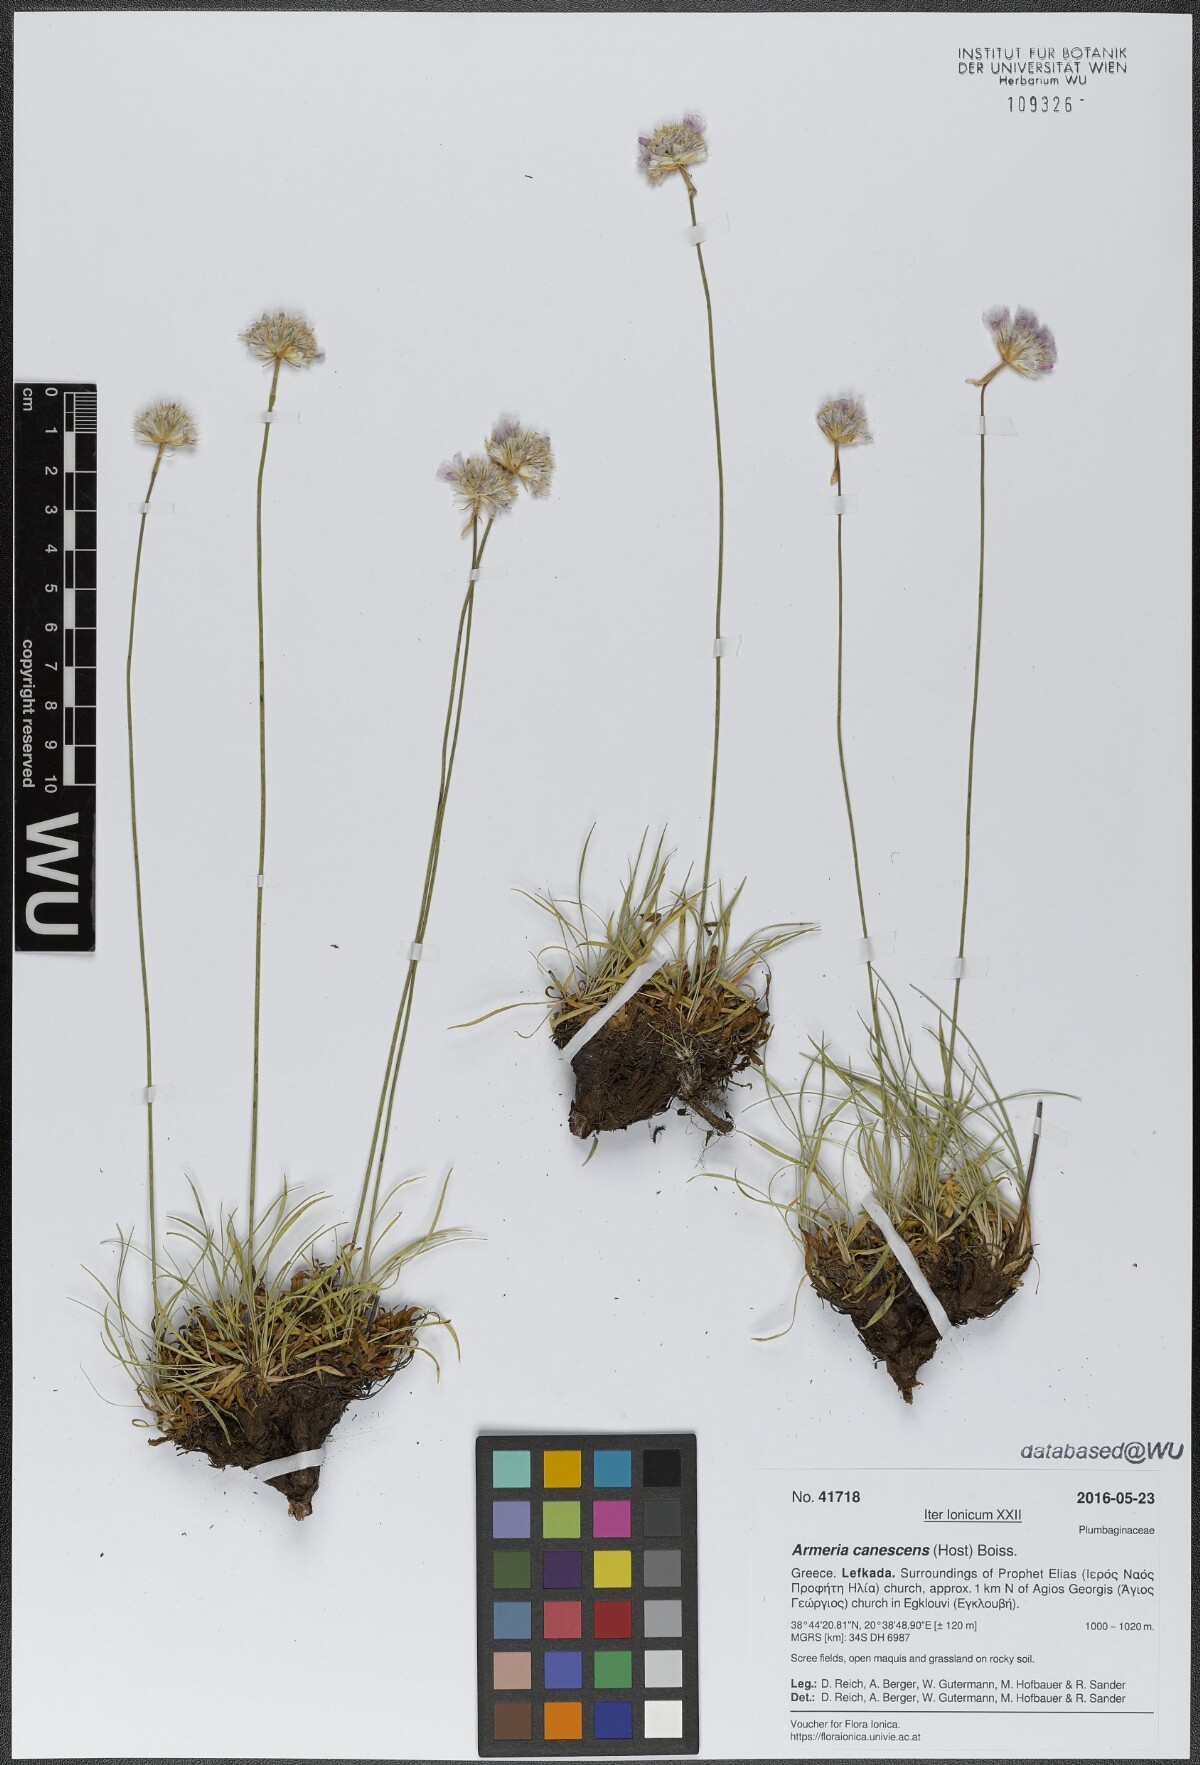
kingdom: Plantae
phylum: Tracheophyta
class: Magnoliopsida
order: Caryophyllales
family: Plumbaginaceae
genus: Armeria
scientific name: Armeria canescens
